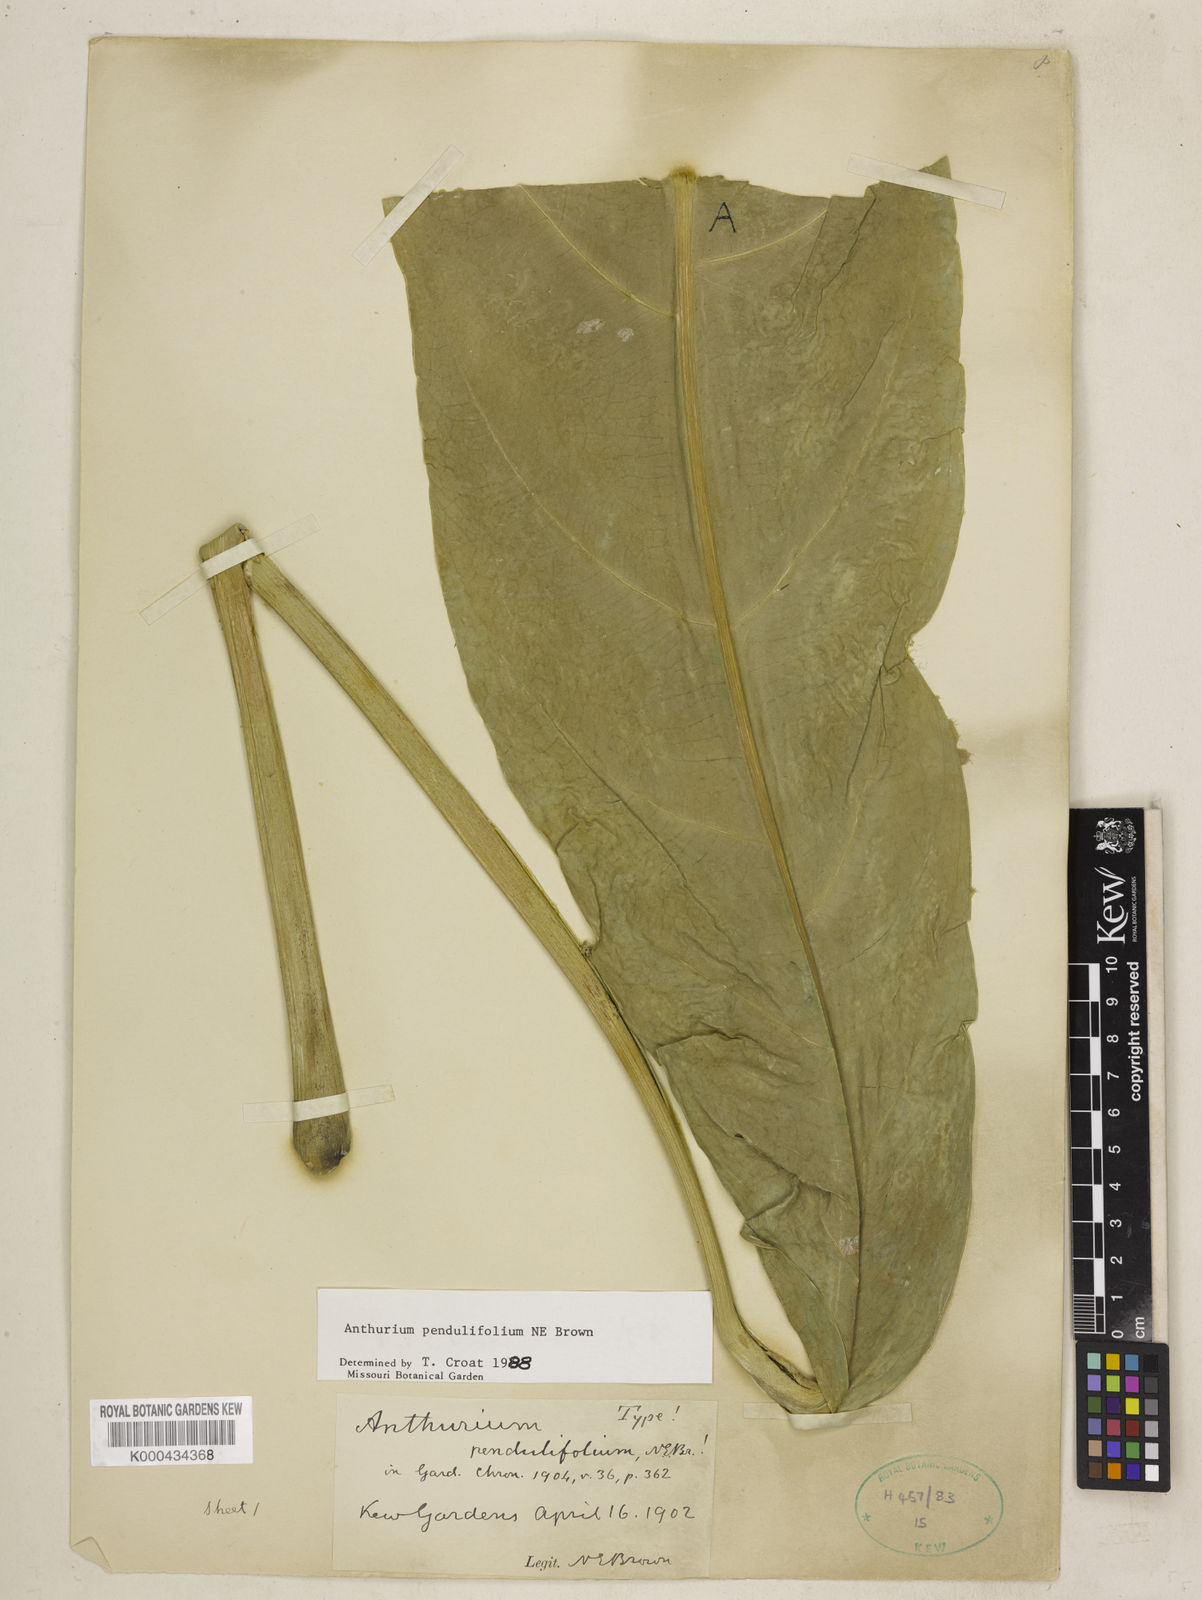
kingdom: Plantae
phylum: Tracheophyta
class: Liliopsida
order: Alismatales
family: Araceae
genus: Anthurium
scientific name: Anthurium pendulifolium
